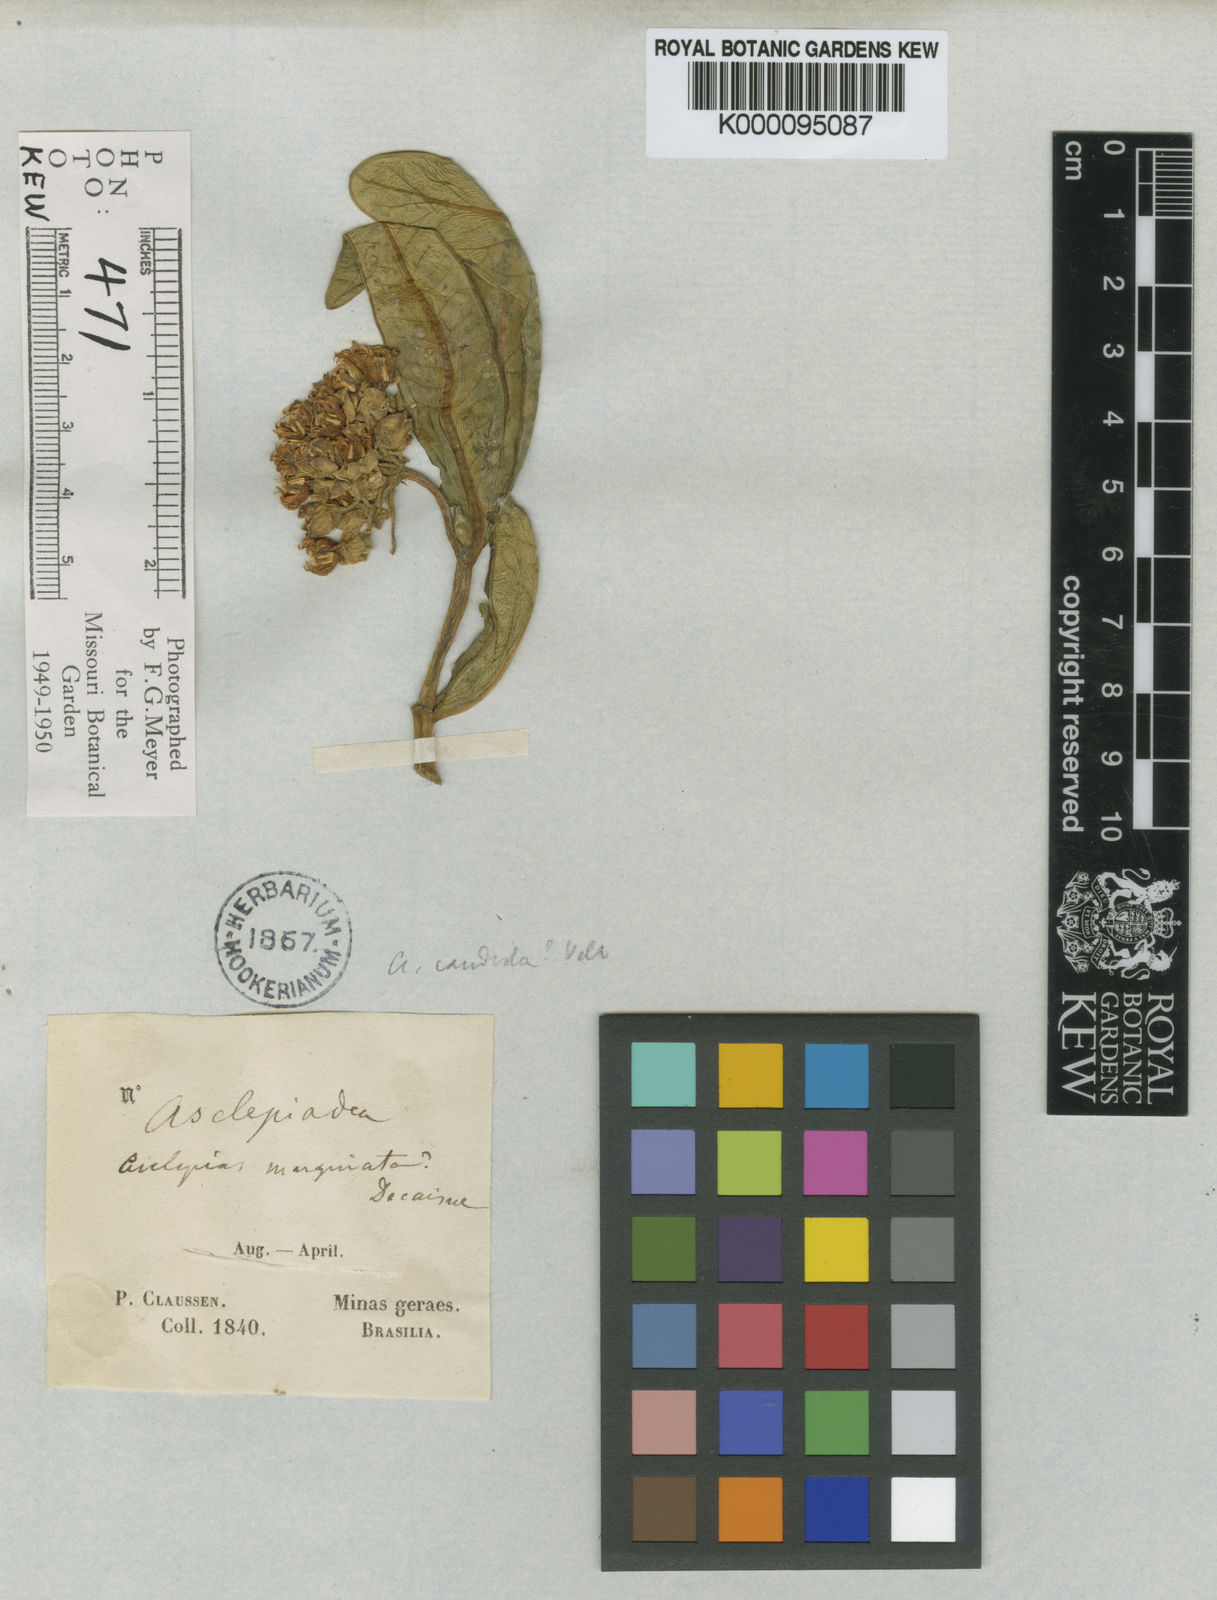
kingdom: Plantae
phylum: Tracheophyta
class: Magnoliopsida
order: Gentianales
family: Apocynaceae
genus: Asclepias
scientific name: Asclepias candida
